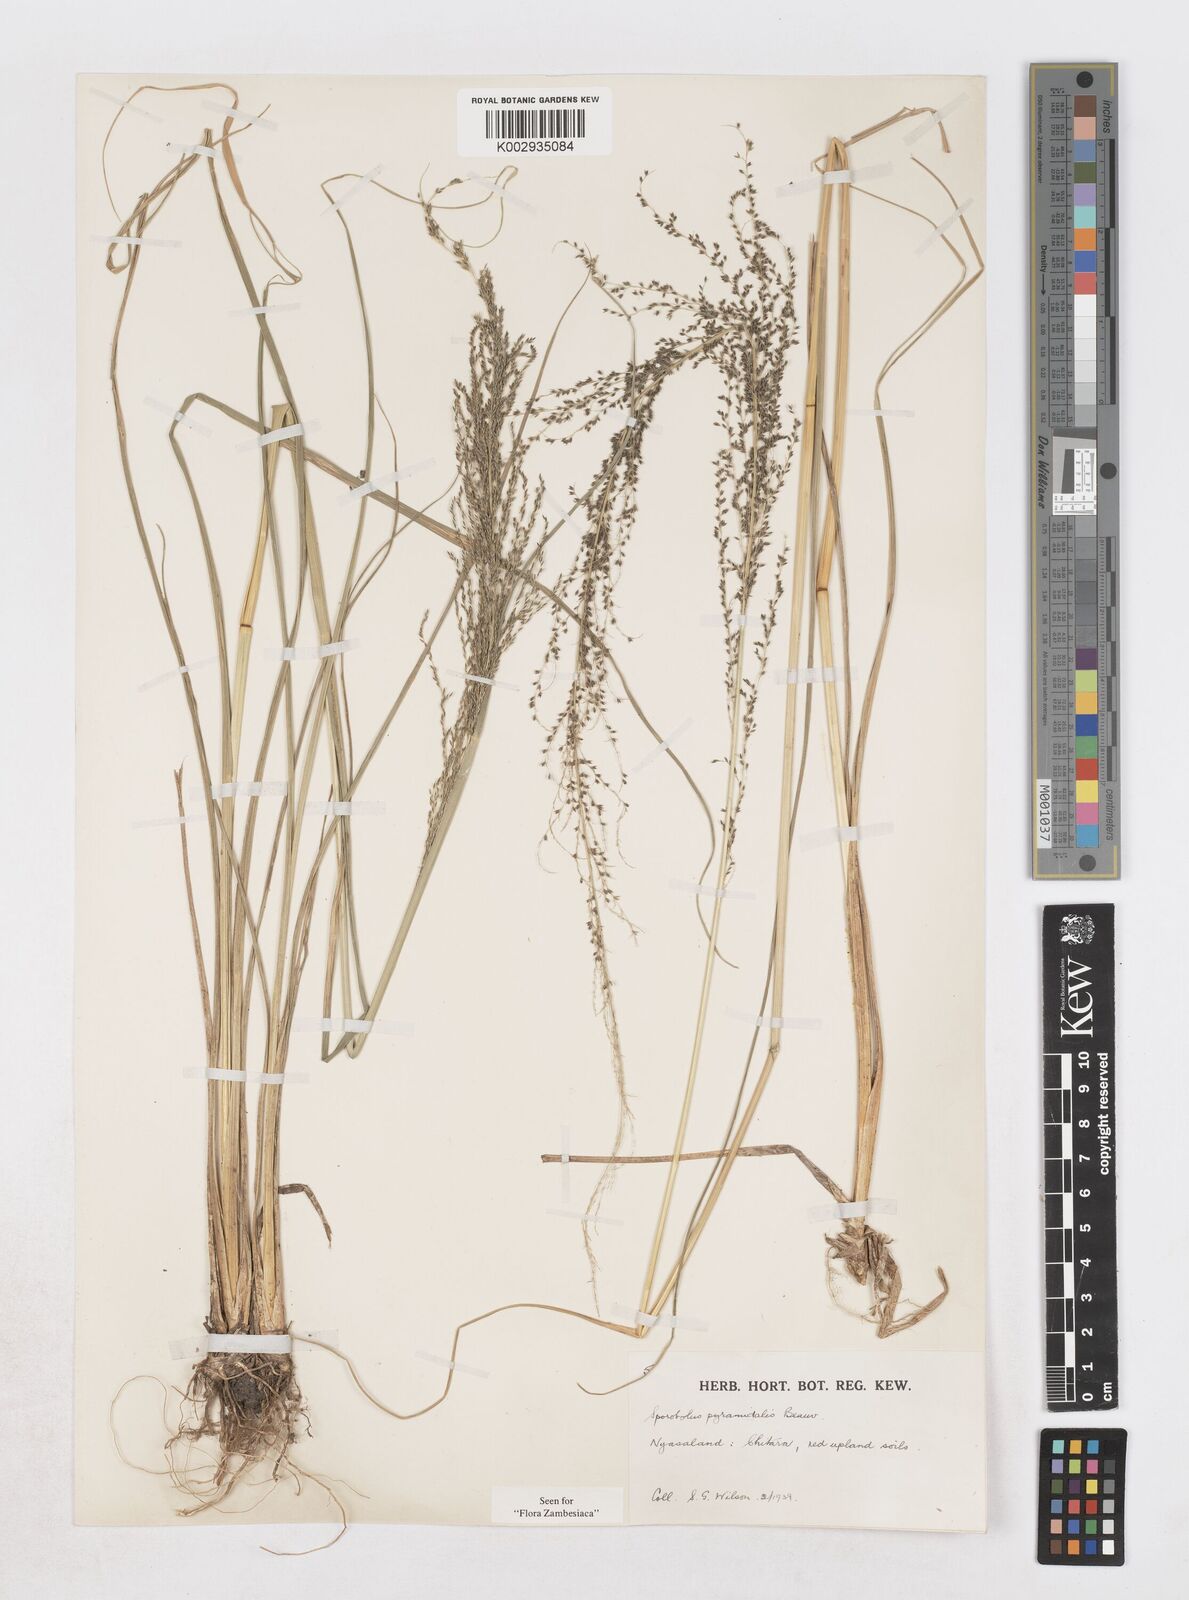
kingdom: Plantae
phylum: Tracheophyta
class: Liliopsida
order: Poales
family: Poaceae
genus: Sporobolus
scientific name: Sporobolus pyramidalis
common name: West indian dropseed
